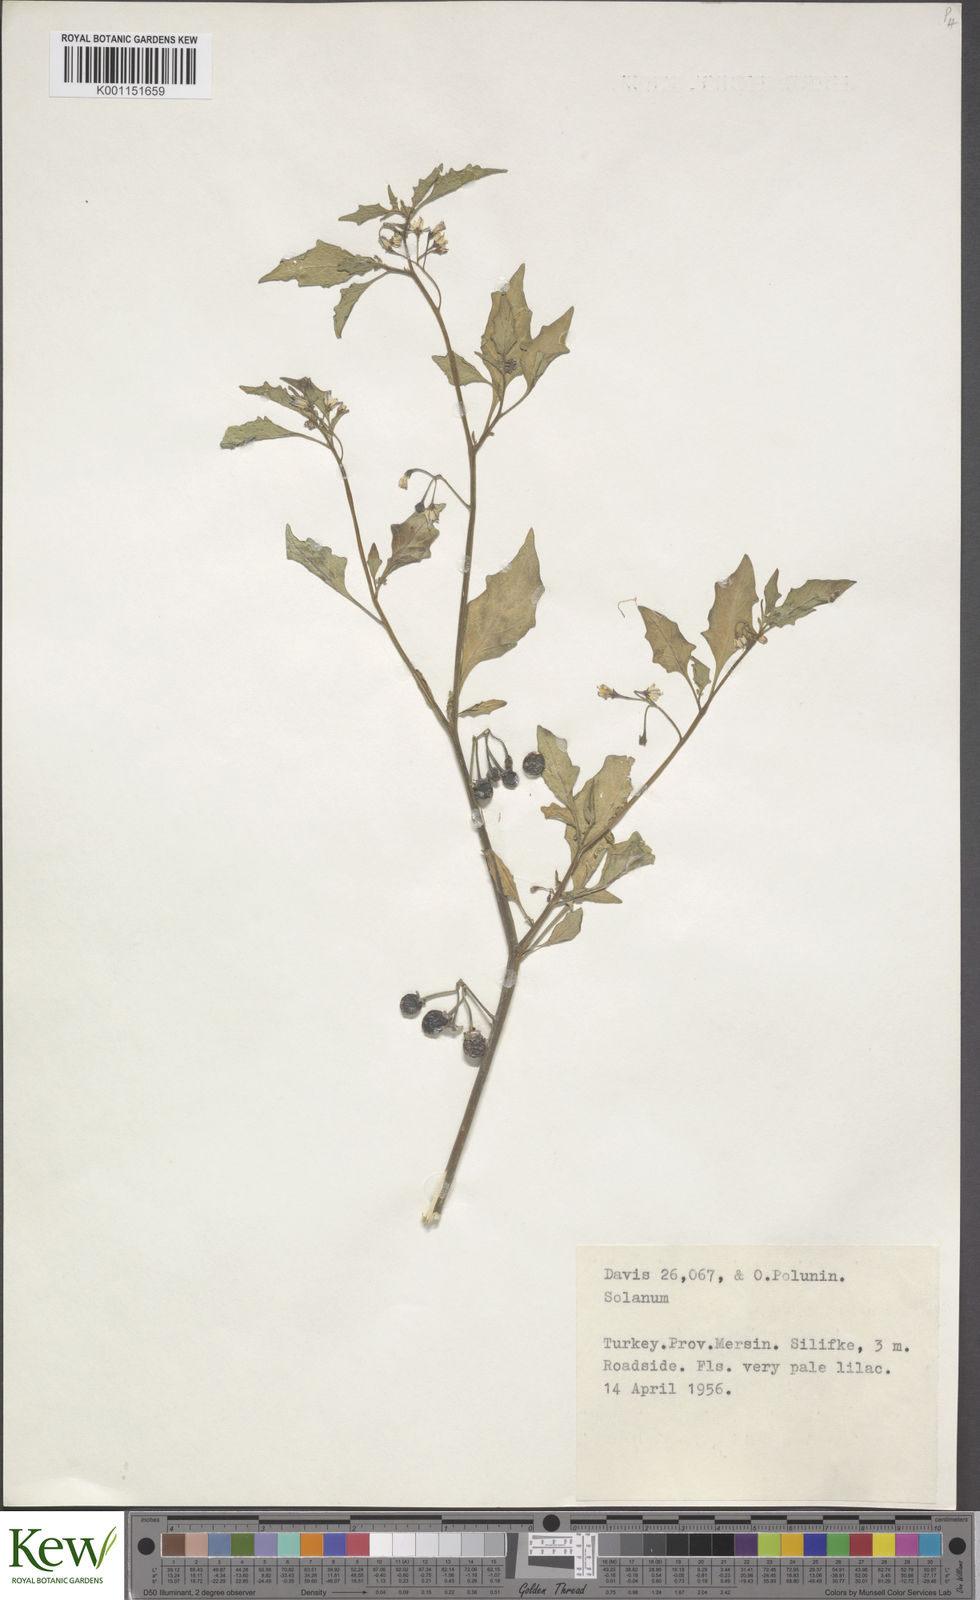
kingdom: Plantae
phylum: Tracheophyta
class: Magnoliopsida
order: Solanales
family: Solanaceae
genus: Solanum
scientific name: Solanum villosum
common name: Red nightshade
